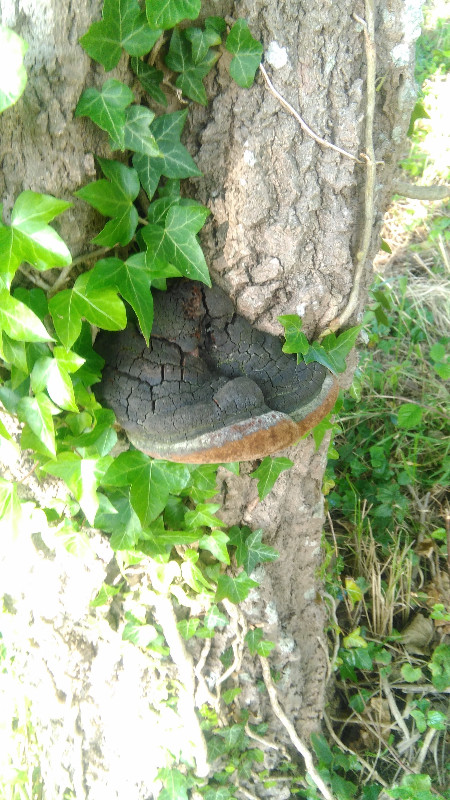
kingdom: Fungi
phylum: Basidiomycota
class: Agaricomycetes
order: Hymenochaetales
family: Hymenochaetaceae
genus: Phellinus
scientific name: Phellinus populicola
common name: poppel-ildporesvamp
